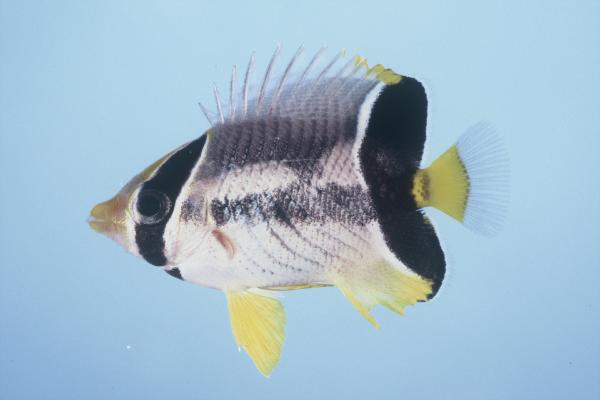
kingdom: Animalia
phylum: Chordata
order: Perciformes
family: Chaetodontidae
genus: Chaetodon
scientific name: Chaetodon trifascialis
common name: Chevroned butterflyfish
